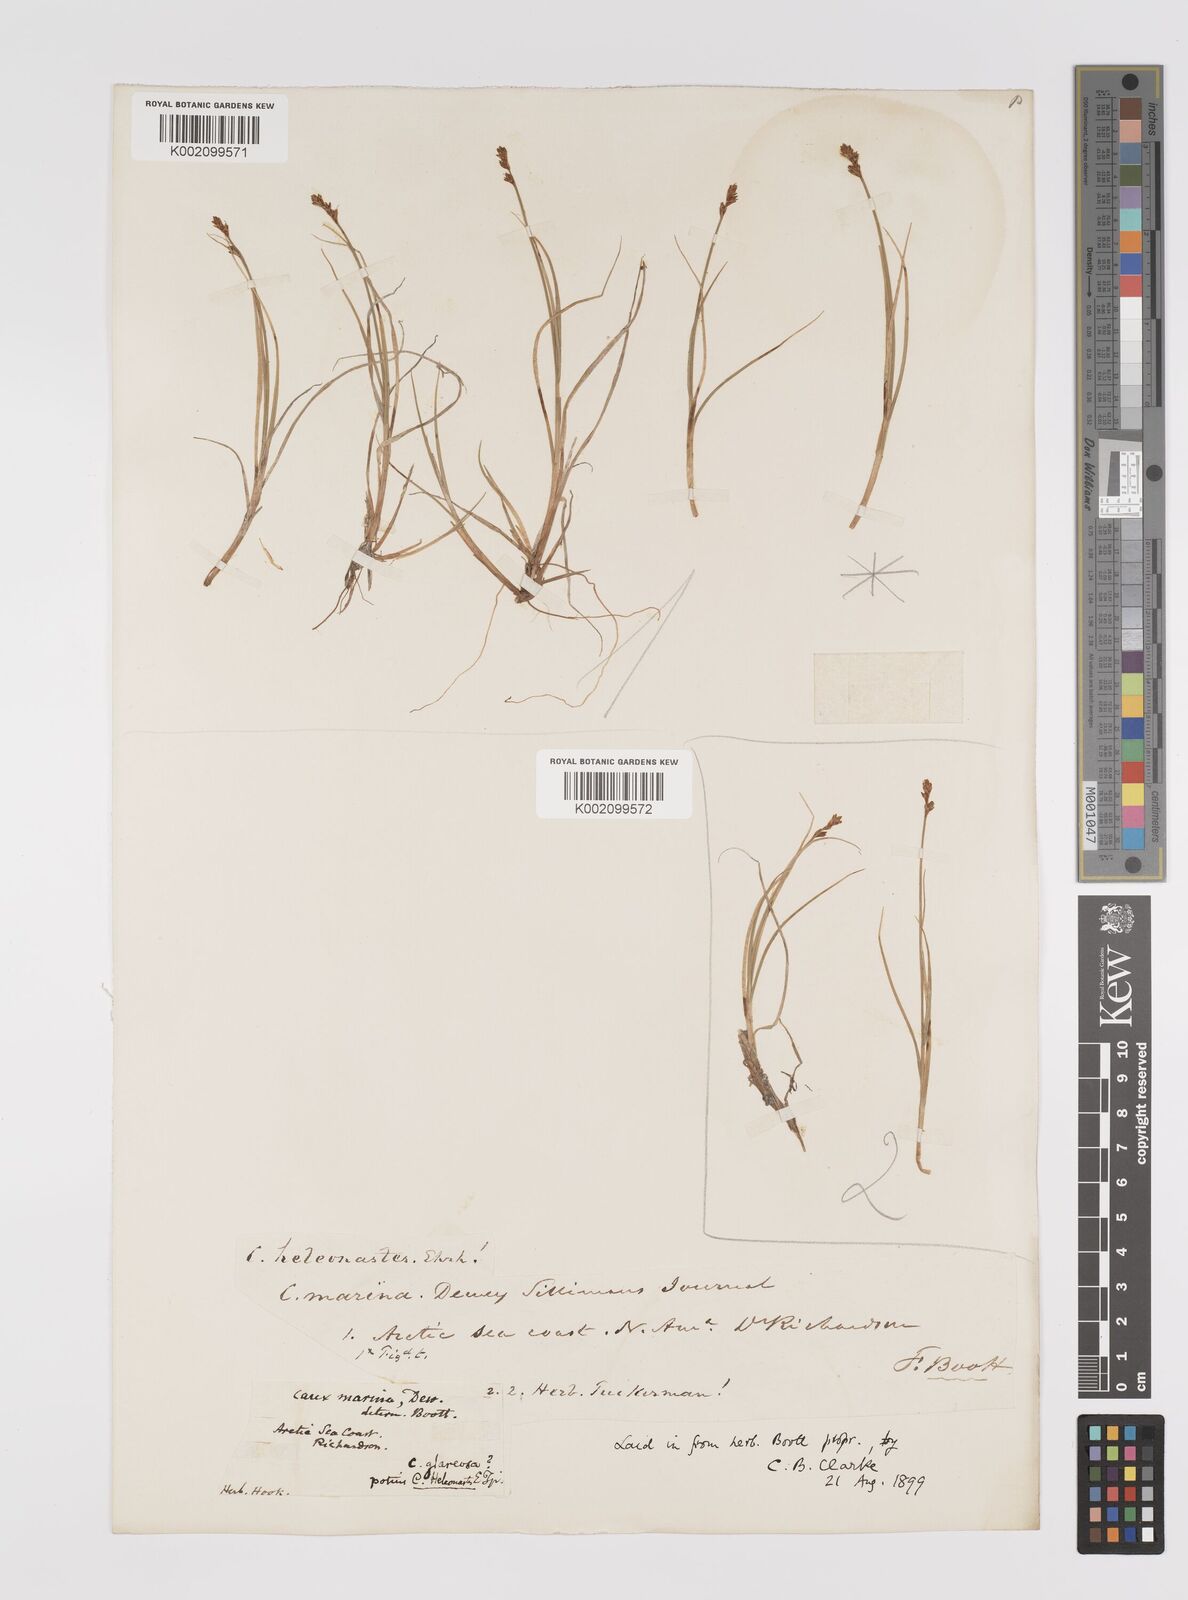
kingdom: Plantae
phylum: Tracheophyta
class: Liliopsida
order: Poales
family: Cyperaceae
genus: Carex
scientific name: Carex heleonastes
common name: Hudson bay sedge
